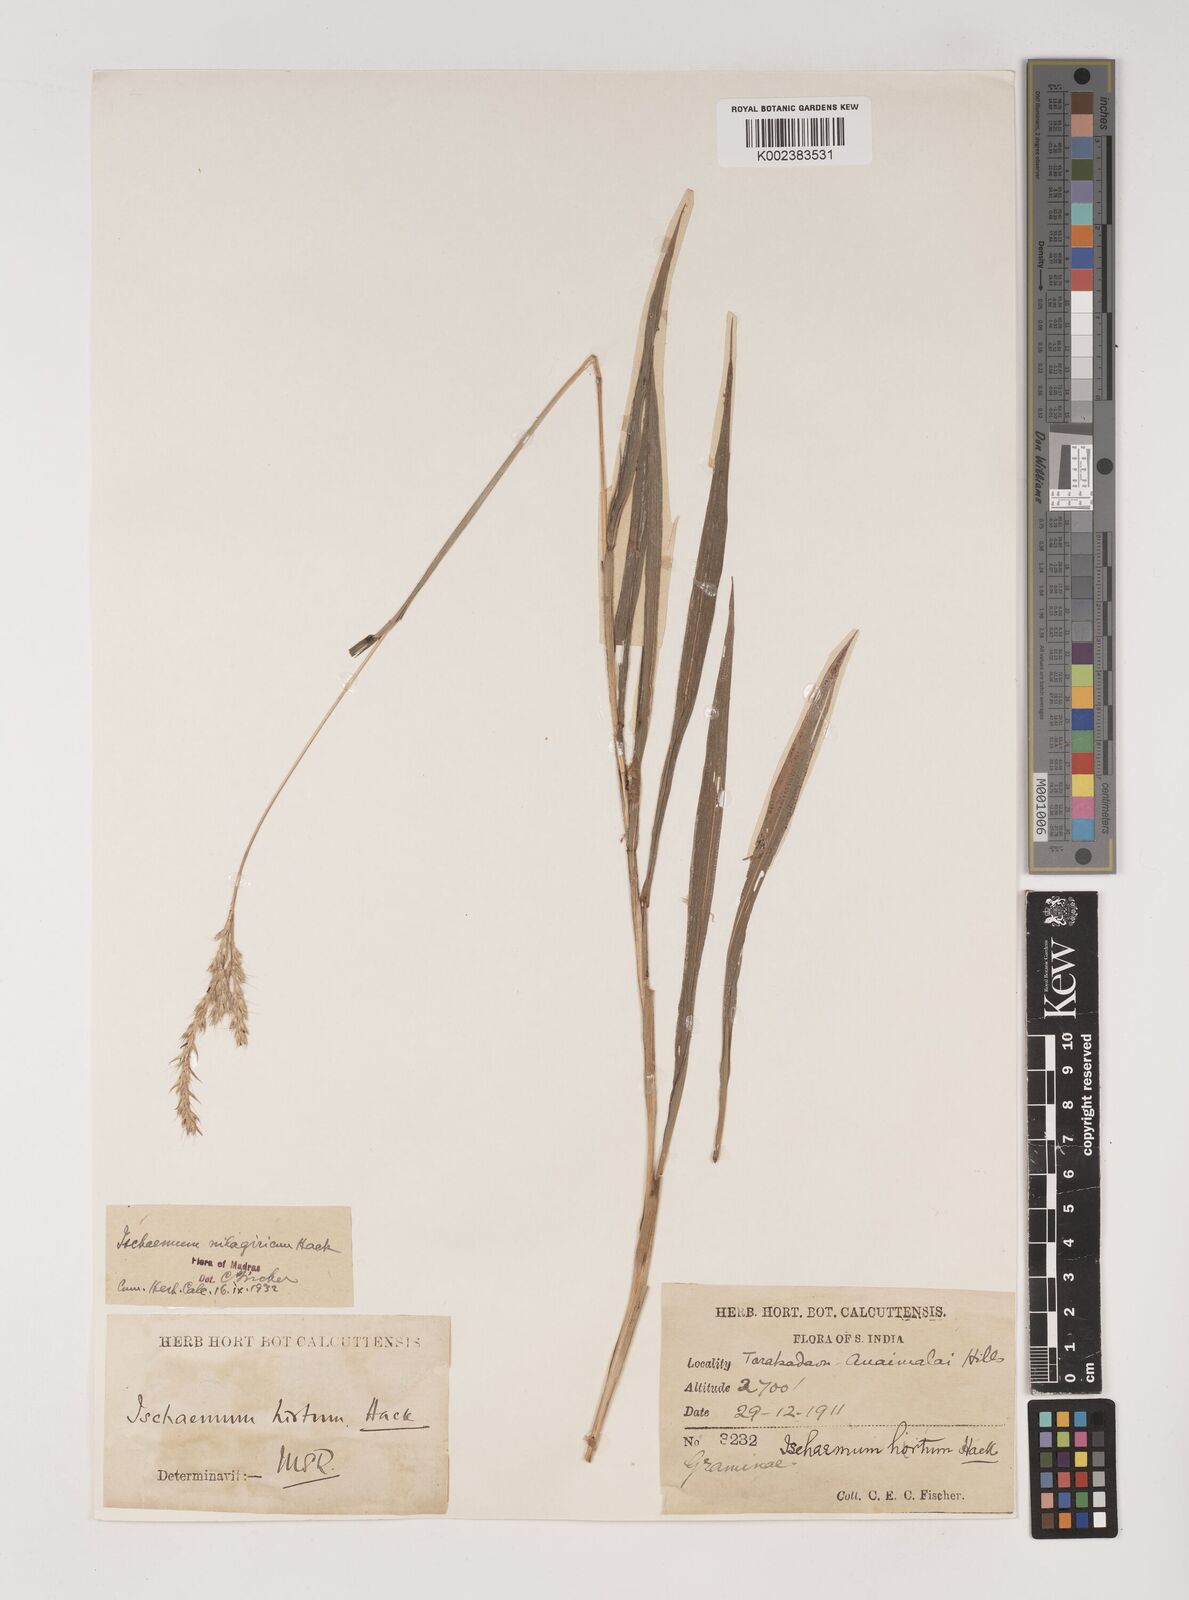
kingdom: Plantae
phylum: Tracheophyta
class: Liliopsida
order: Poales
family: Poaceae
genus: Ischaemum
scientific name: Ischaemum
